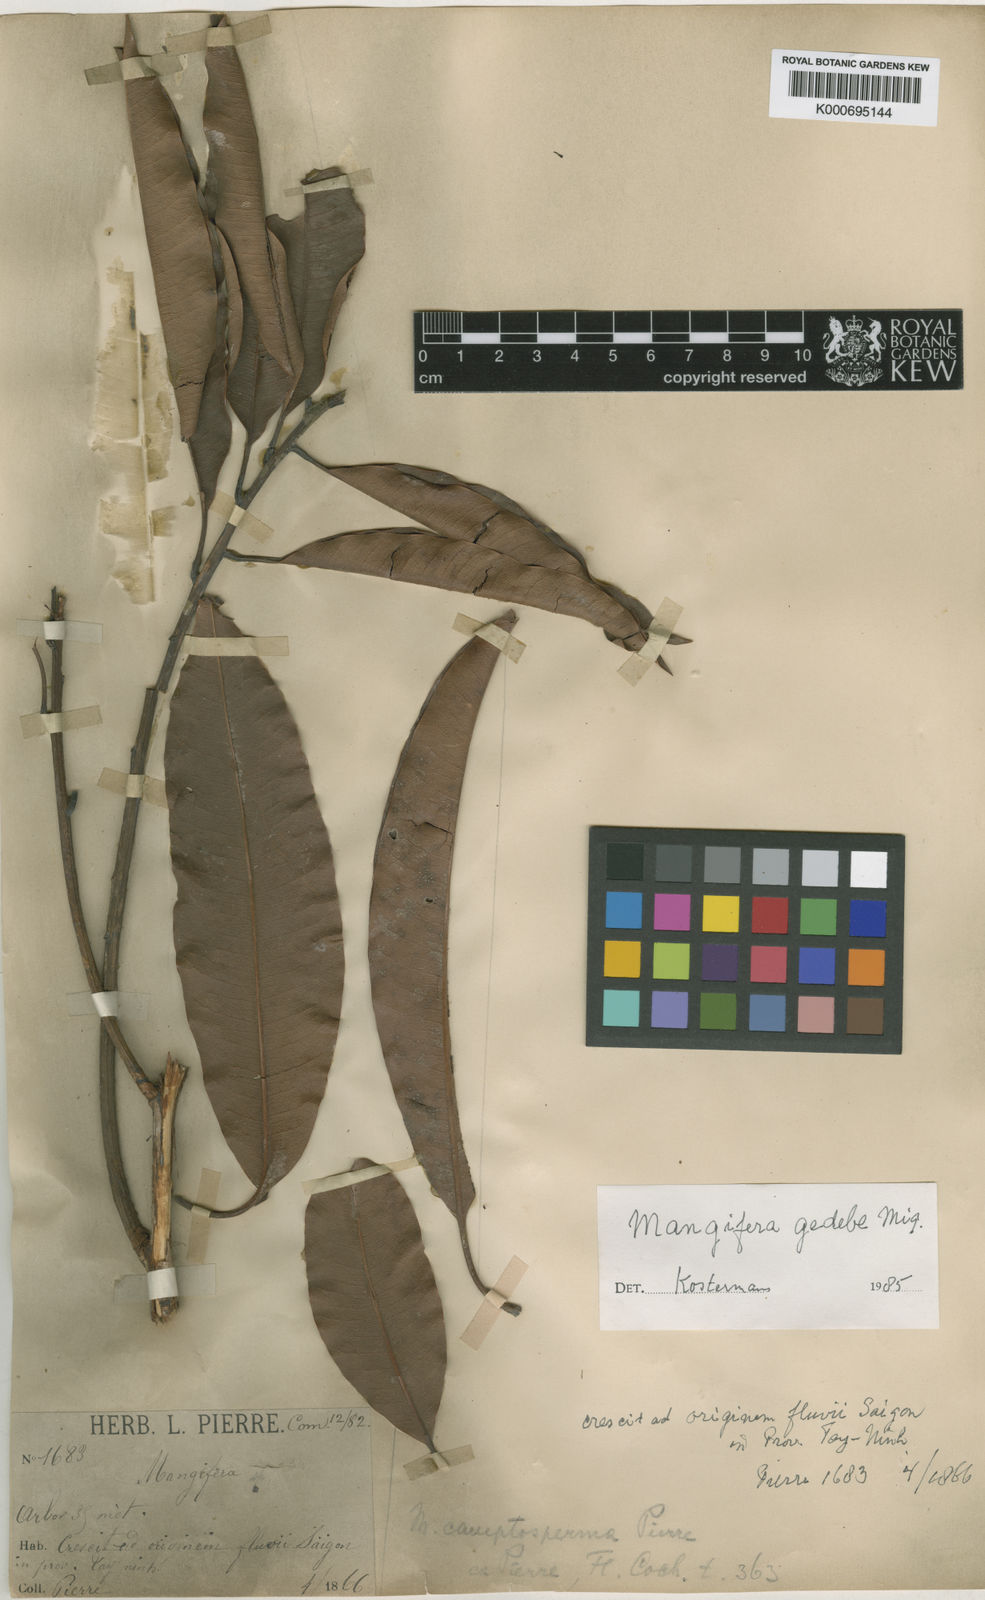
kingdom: Plantae
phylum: Tracheophyta
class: Magnoliopsida
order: Sapindales
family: Anacardiaceae
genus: Mangifera
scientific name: Mangifera camptosperma
